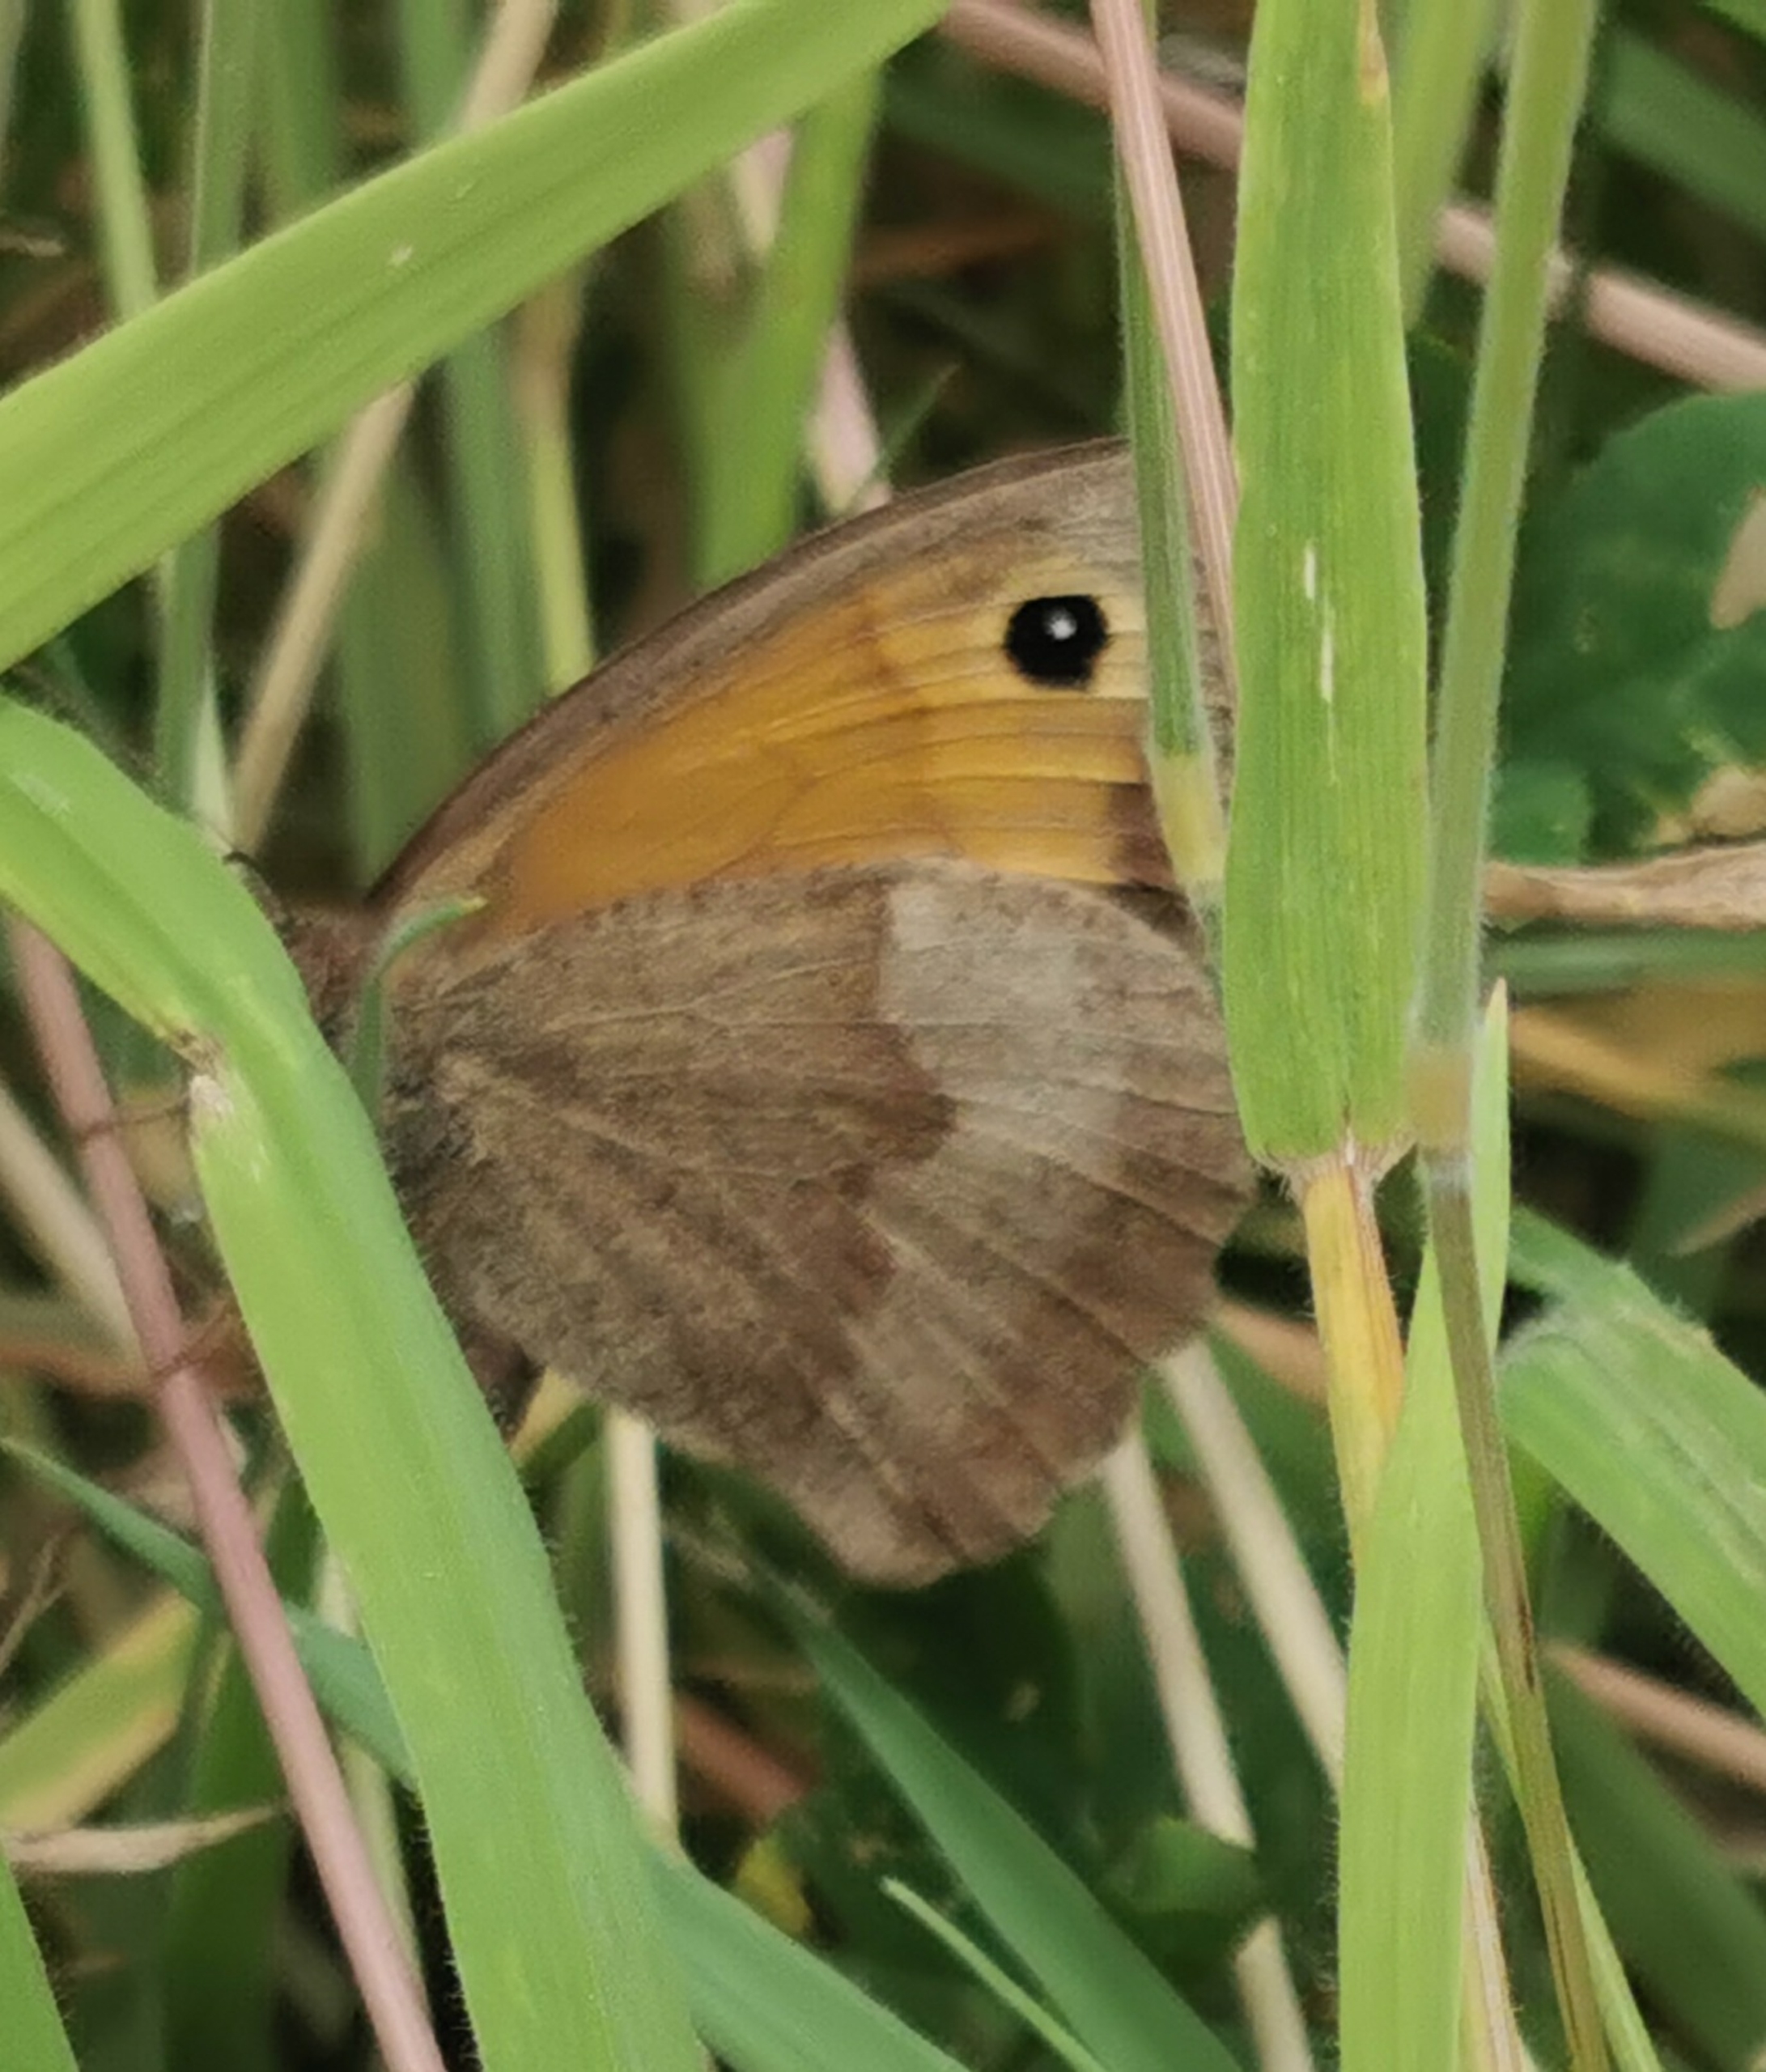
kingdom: Animalia
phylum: Arthropoda
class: Insecta
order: Lepidoptera
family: Nymphalidae
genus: Maniola
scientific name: Maniola jurtina
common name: Græsrandøje
